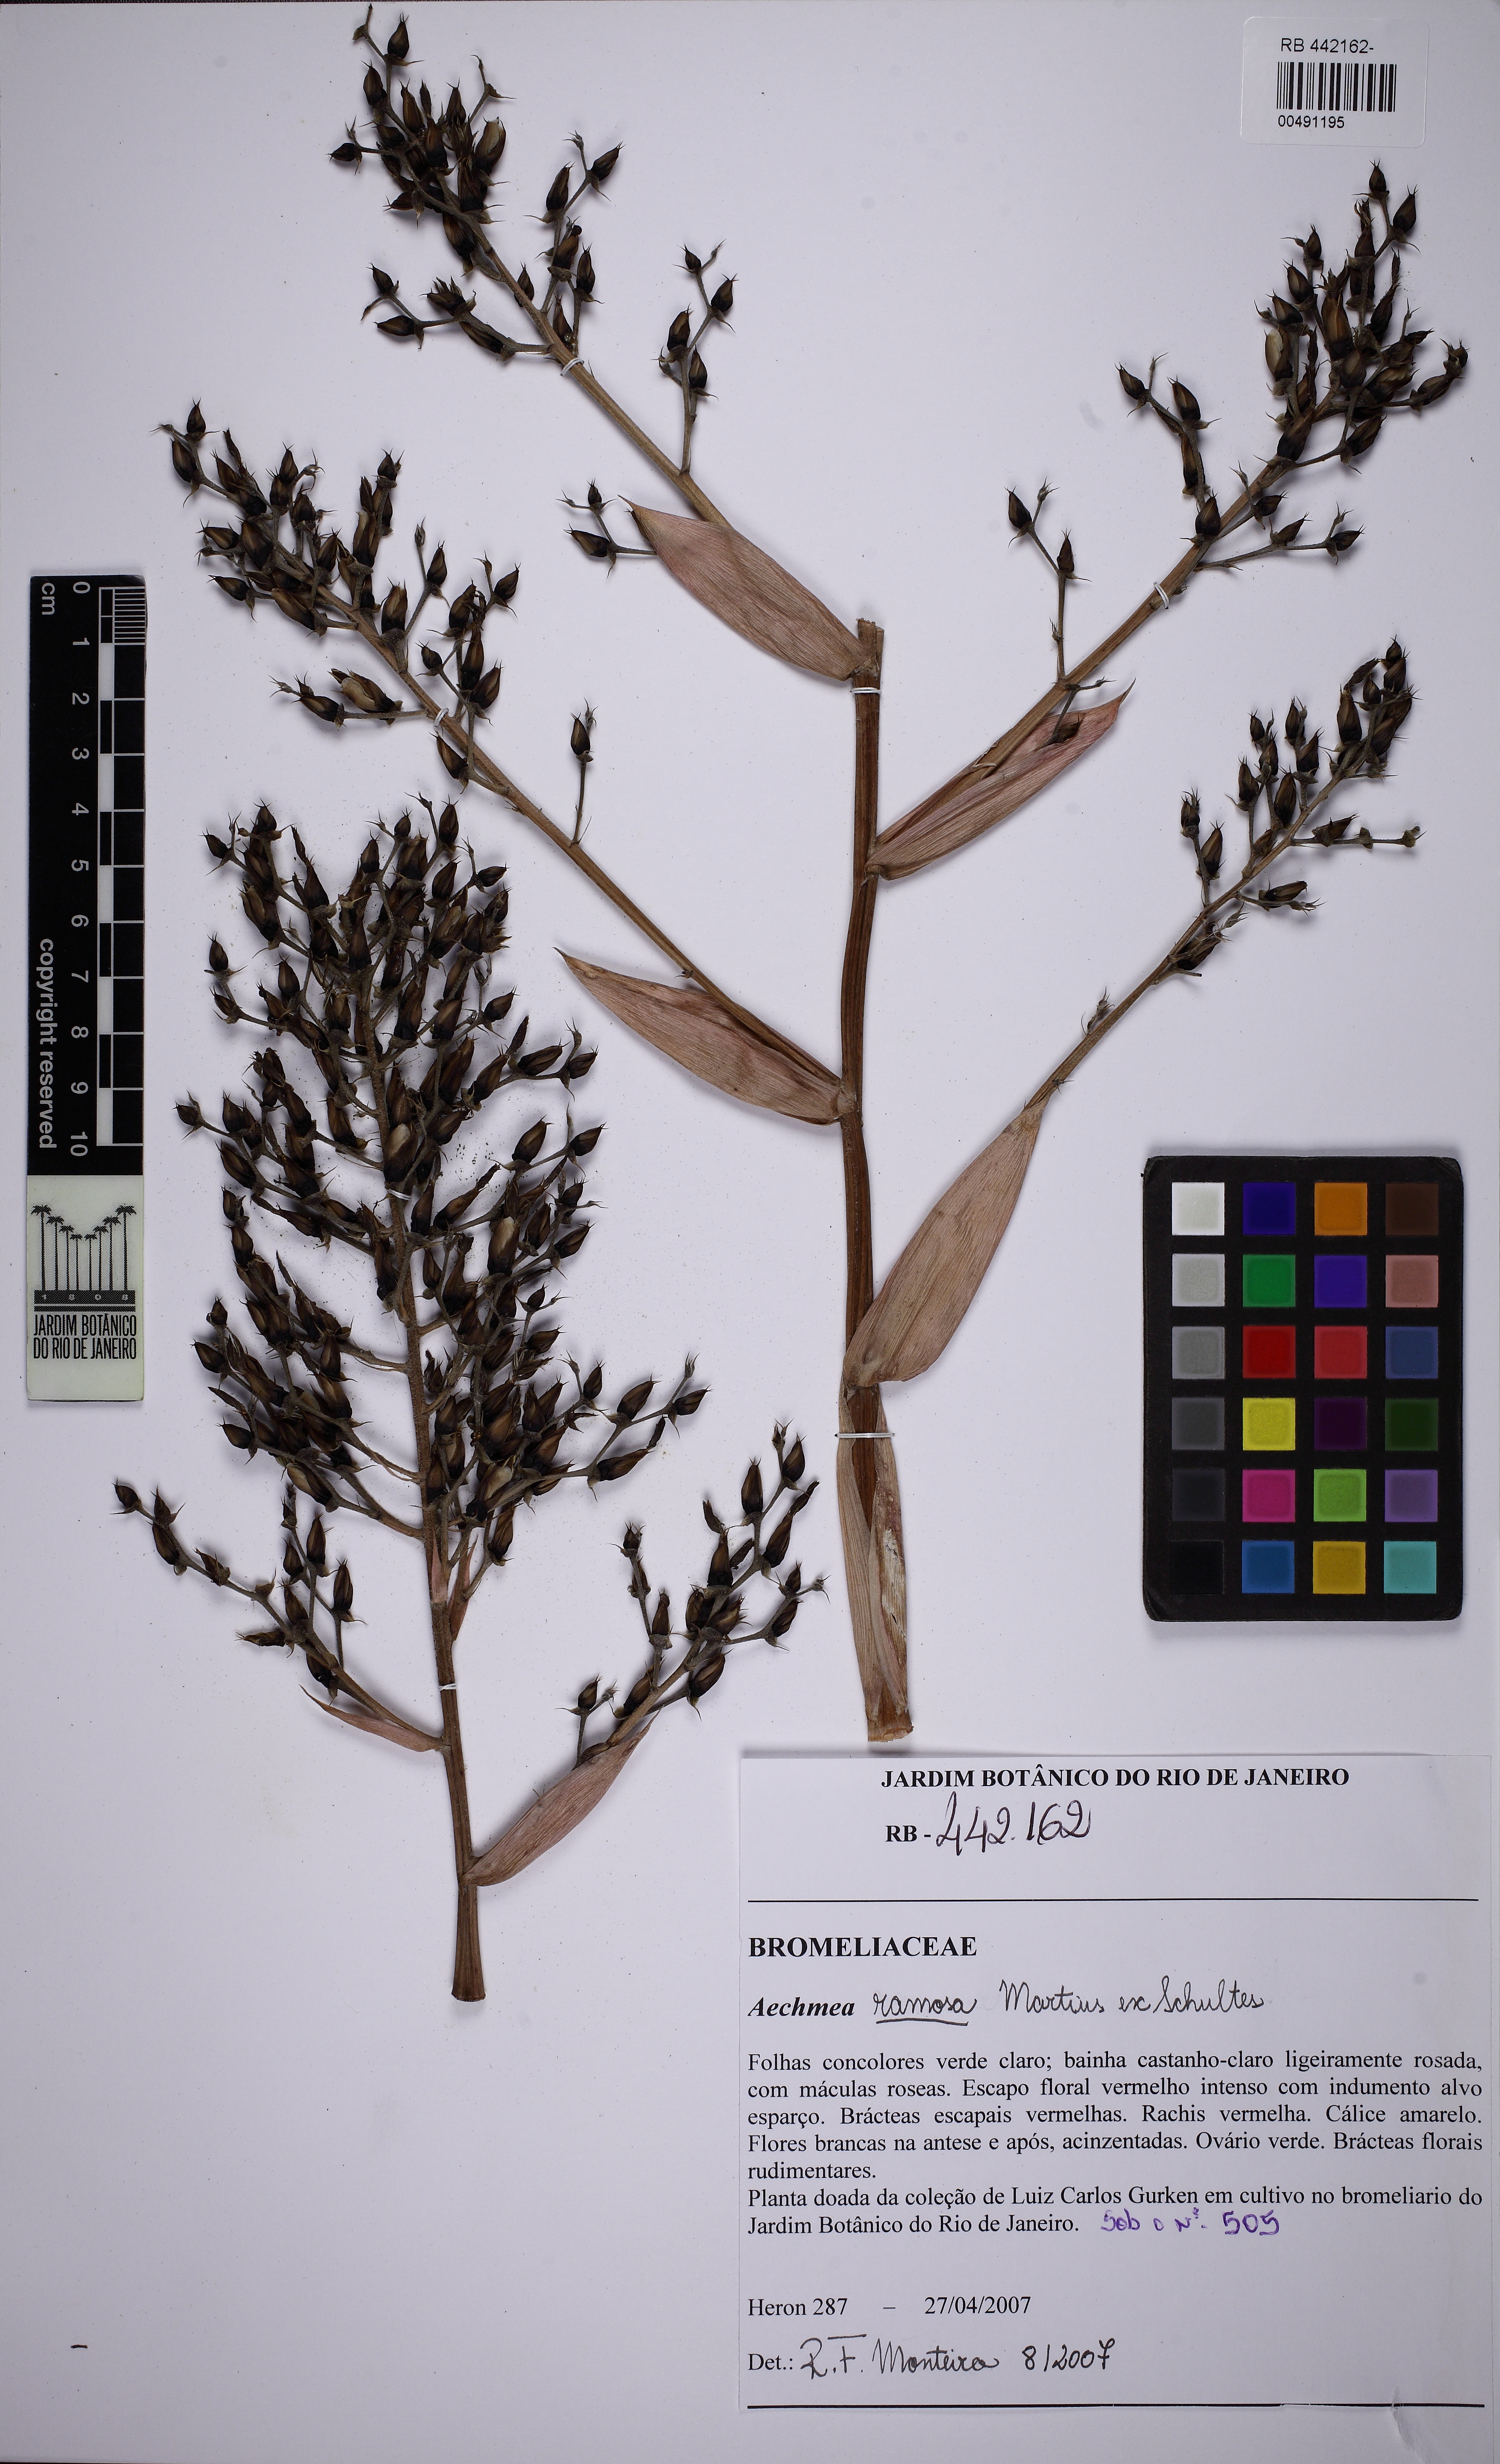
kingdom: Plantae
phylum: Tracheophyta
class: Liliopsida
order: Poales
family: Bromeliaceae
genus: Aechmea
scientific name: Aechmea ramosa
